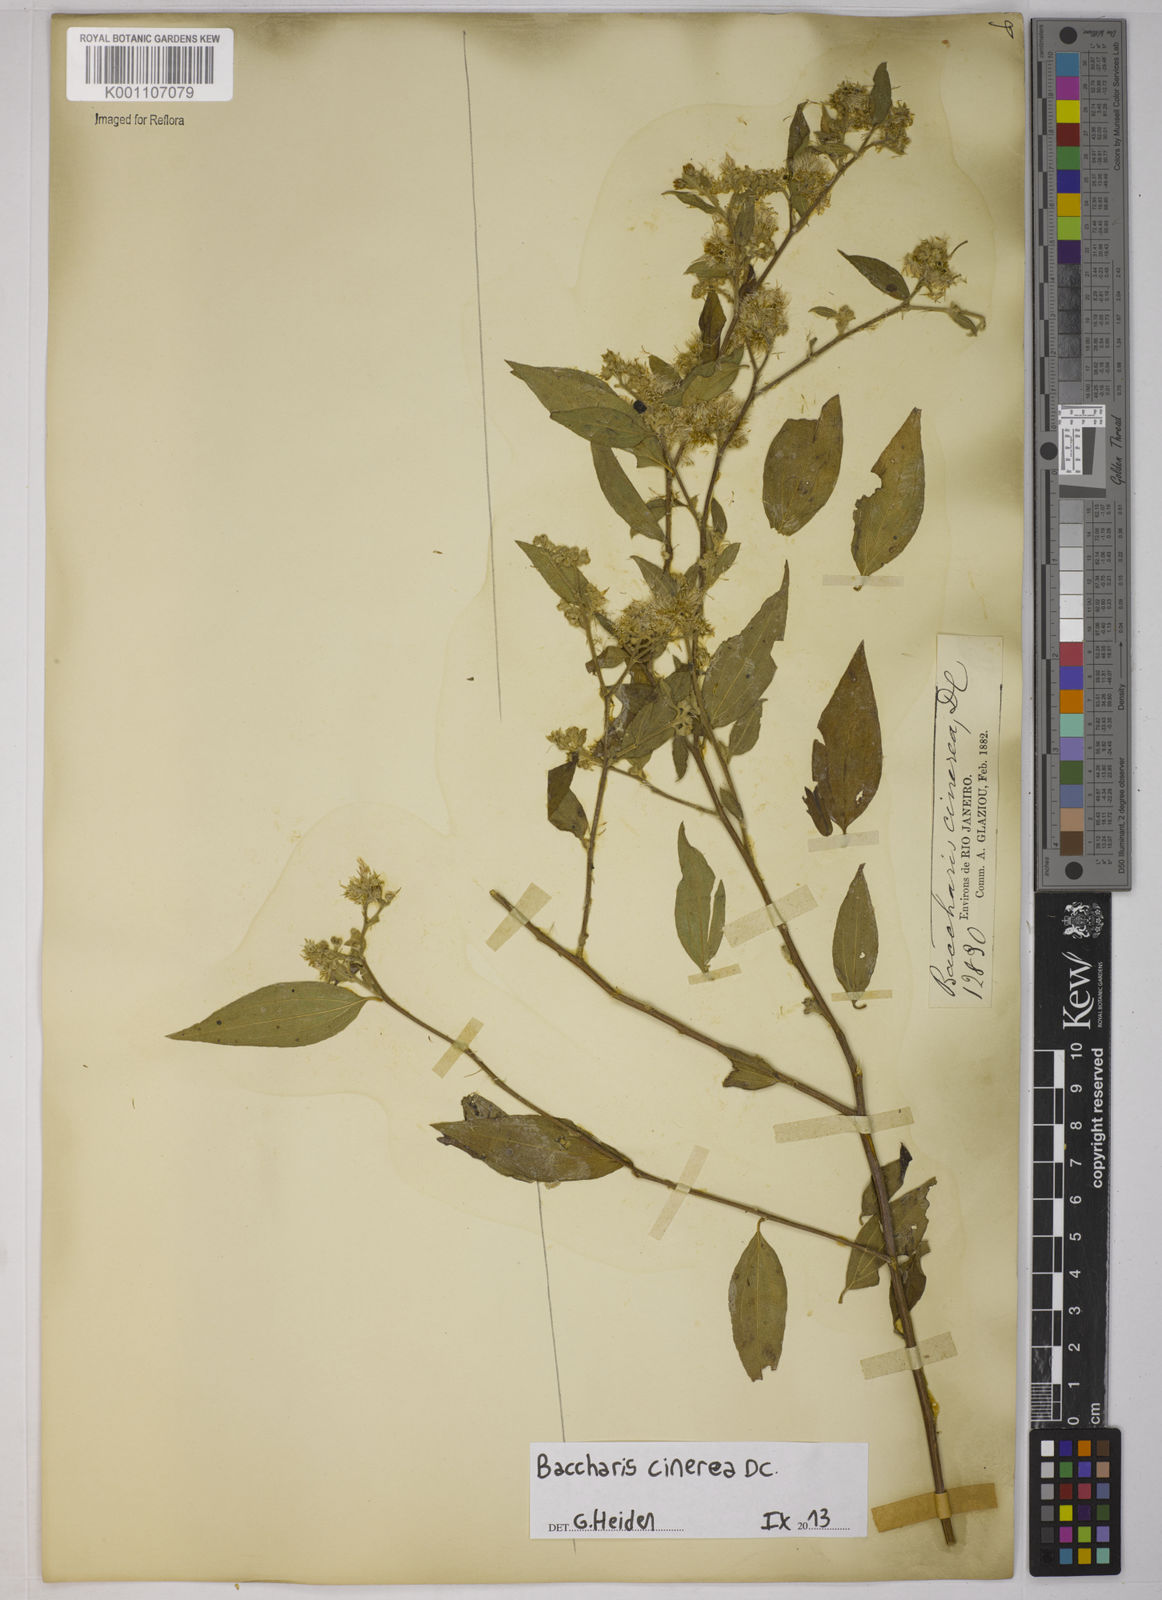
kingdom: Plantae
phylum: Tracheophyta
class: Magnoliopsida
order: Asterales
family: Asteraceae
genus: Baccharis
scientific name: Baccharis trinervis
